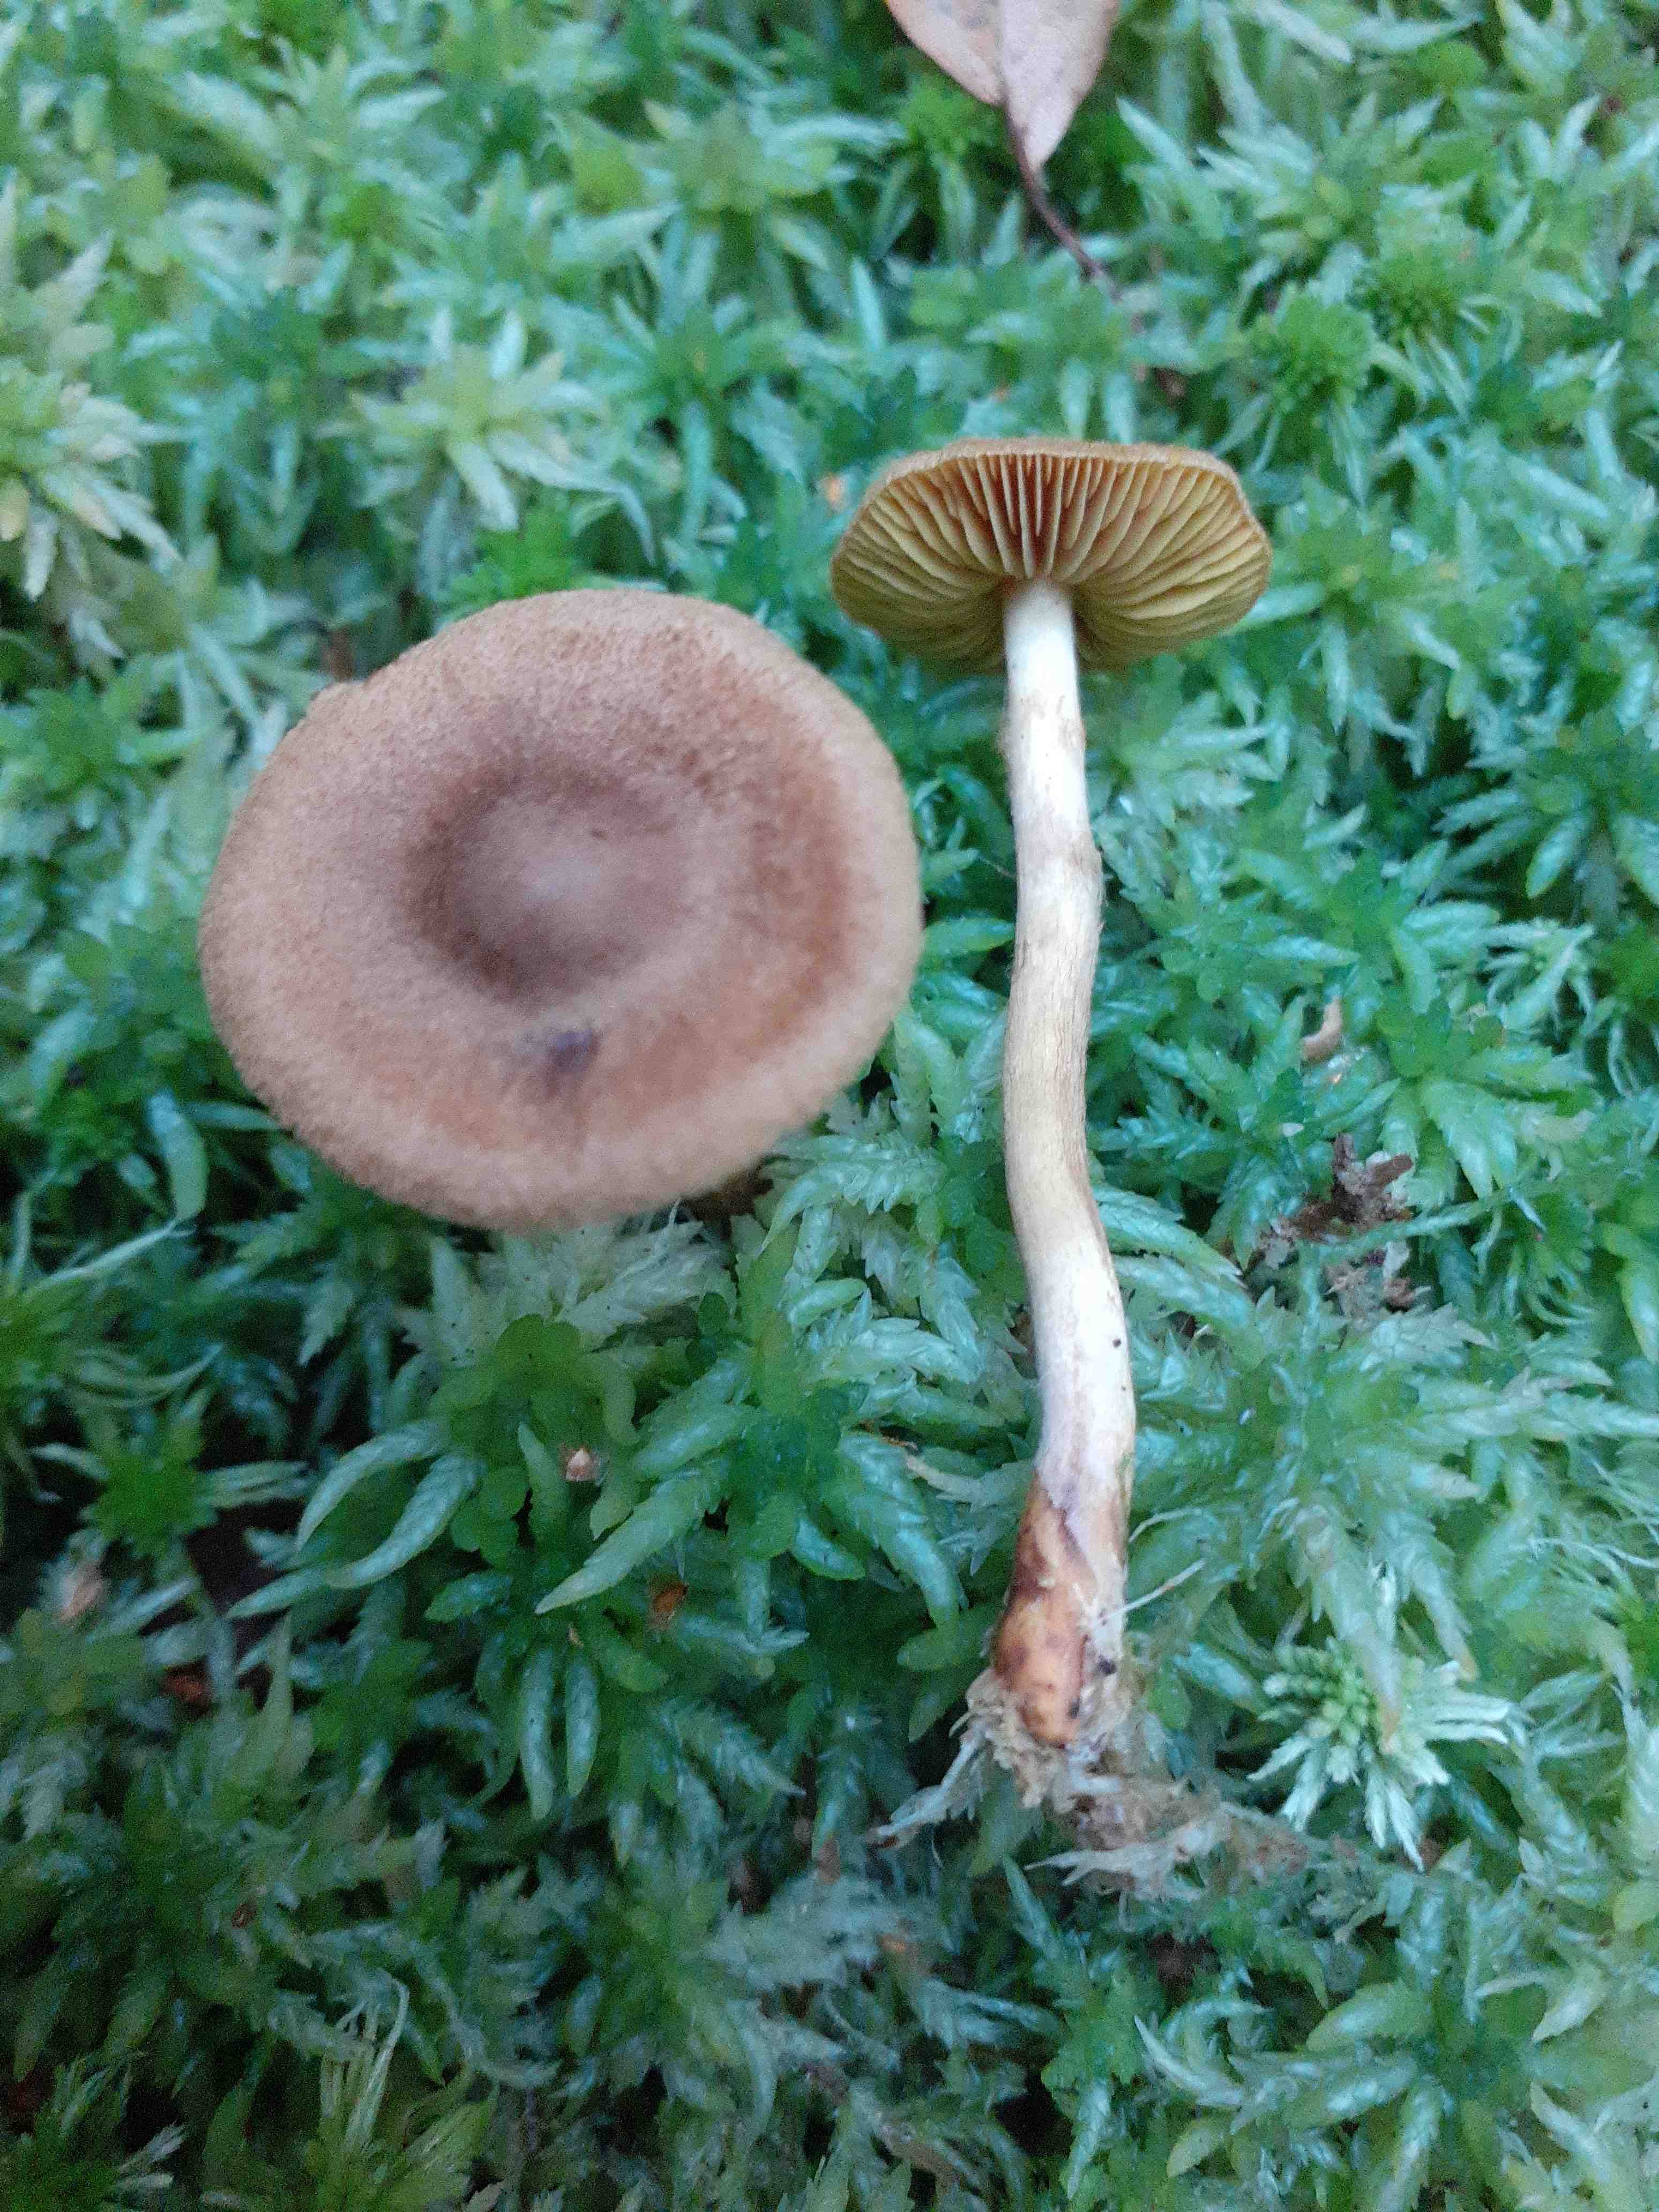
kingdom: Fungi
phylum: Basidiomycota
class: Agaricomycetes
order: Agaricales
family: Cortinariaceae
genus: Cortinarius
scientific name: Cortinarius chrysolitus
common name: safranfodet slørhat
